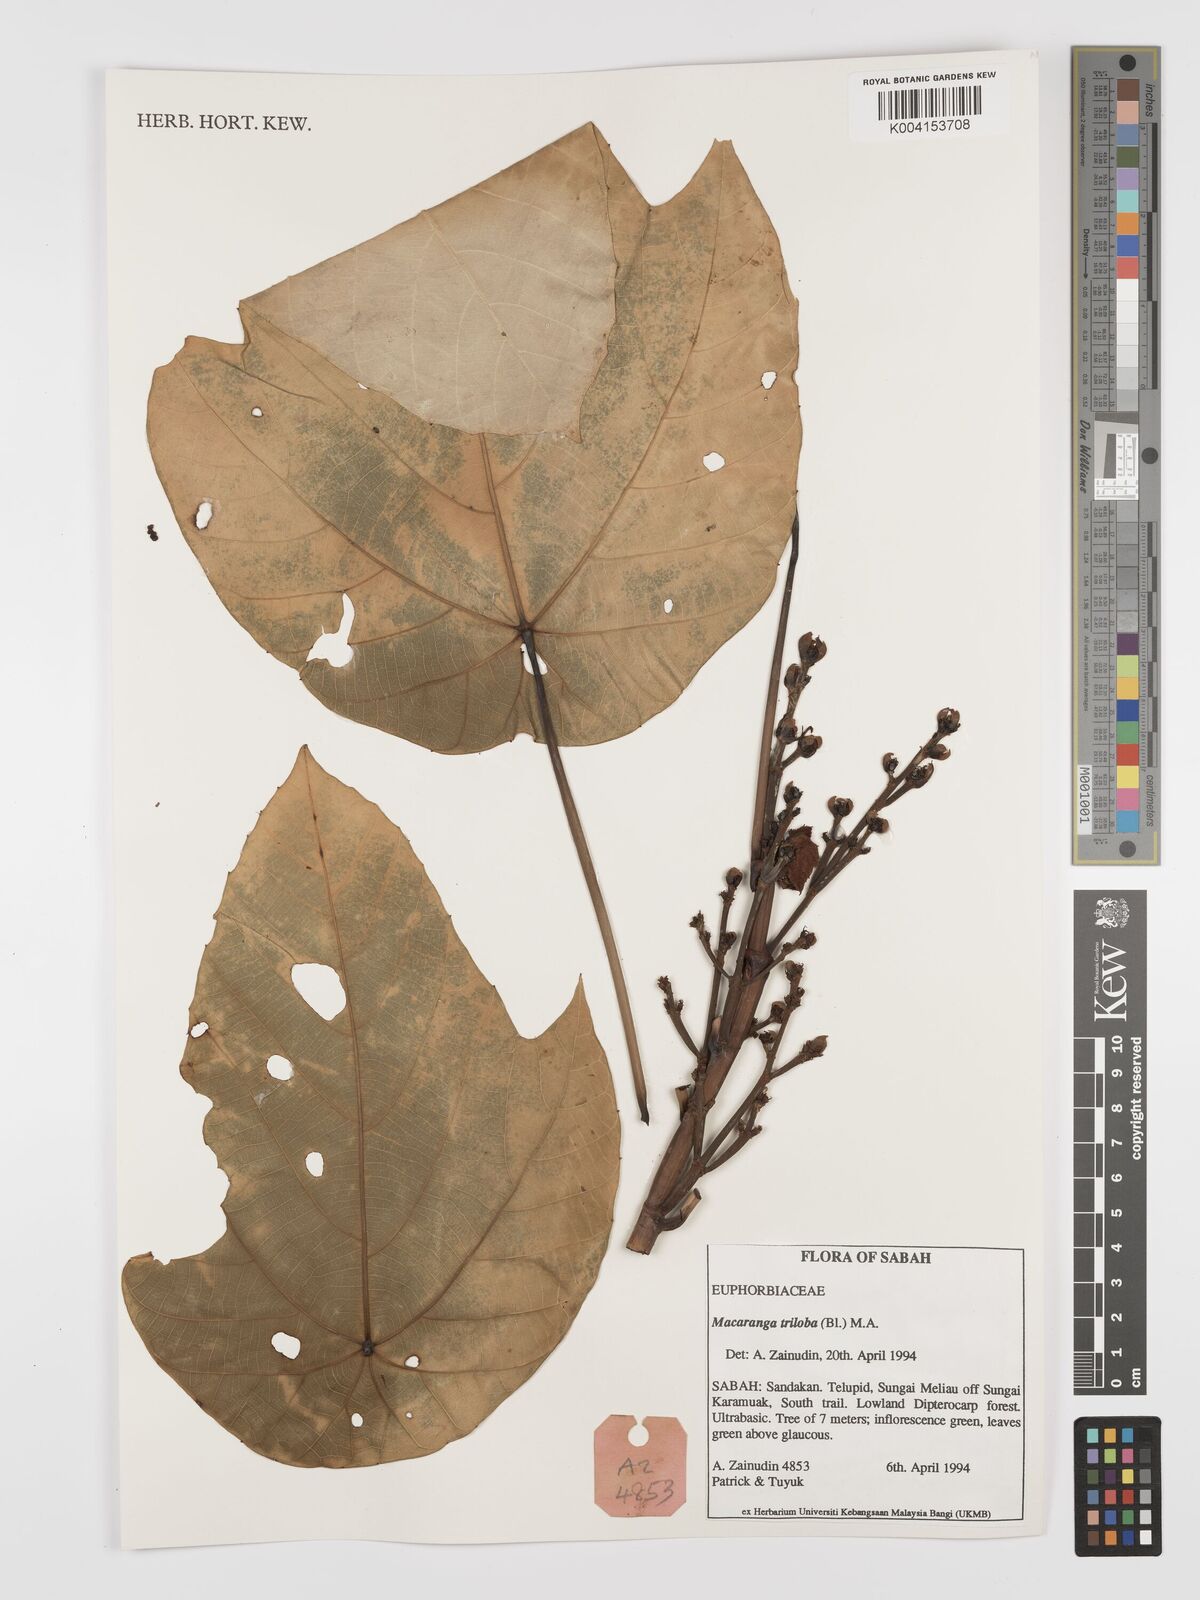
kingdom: Plantae
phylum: Tracheophyta
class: Magnoliopsida
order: Malpighiales
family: Euphorbiaceae
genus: Macaranga
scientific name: Macaranga triloba
